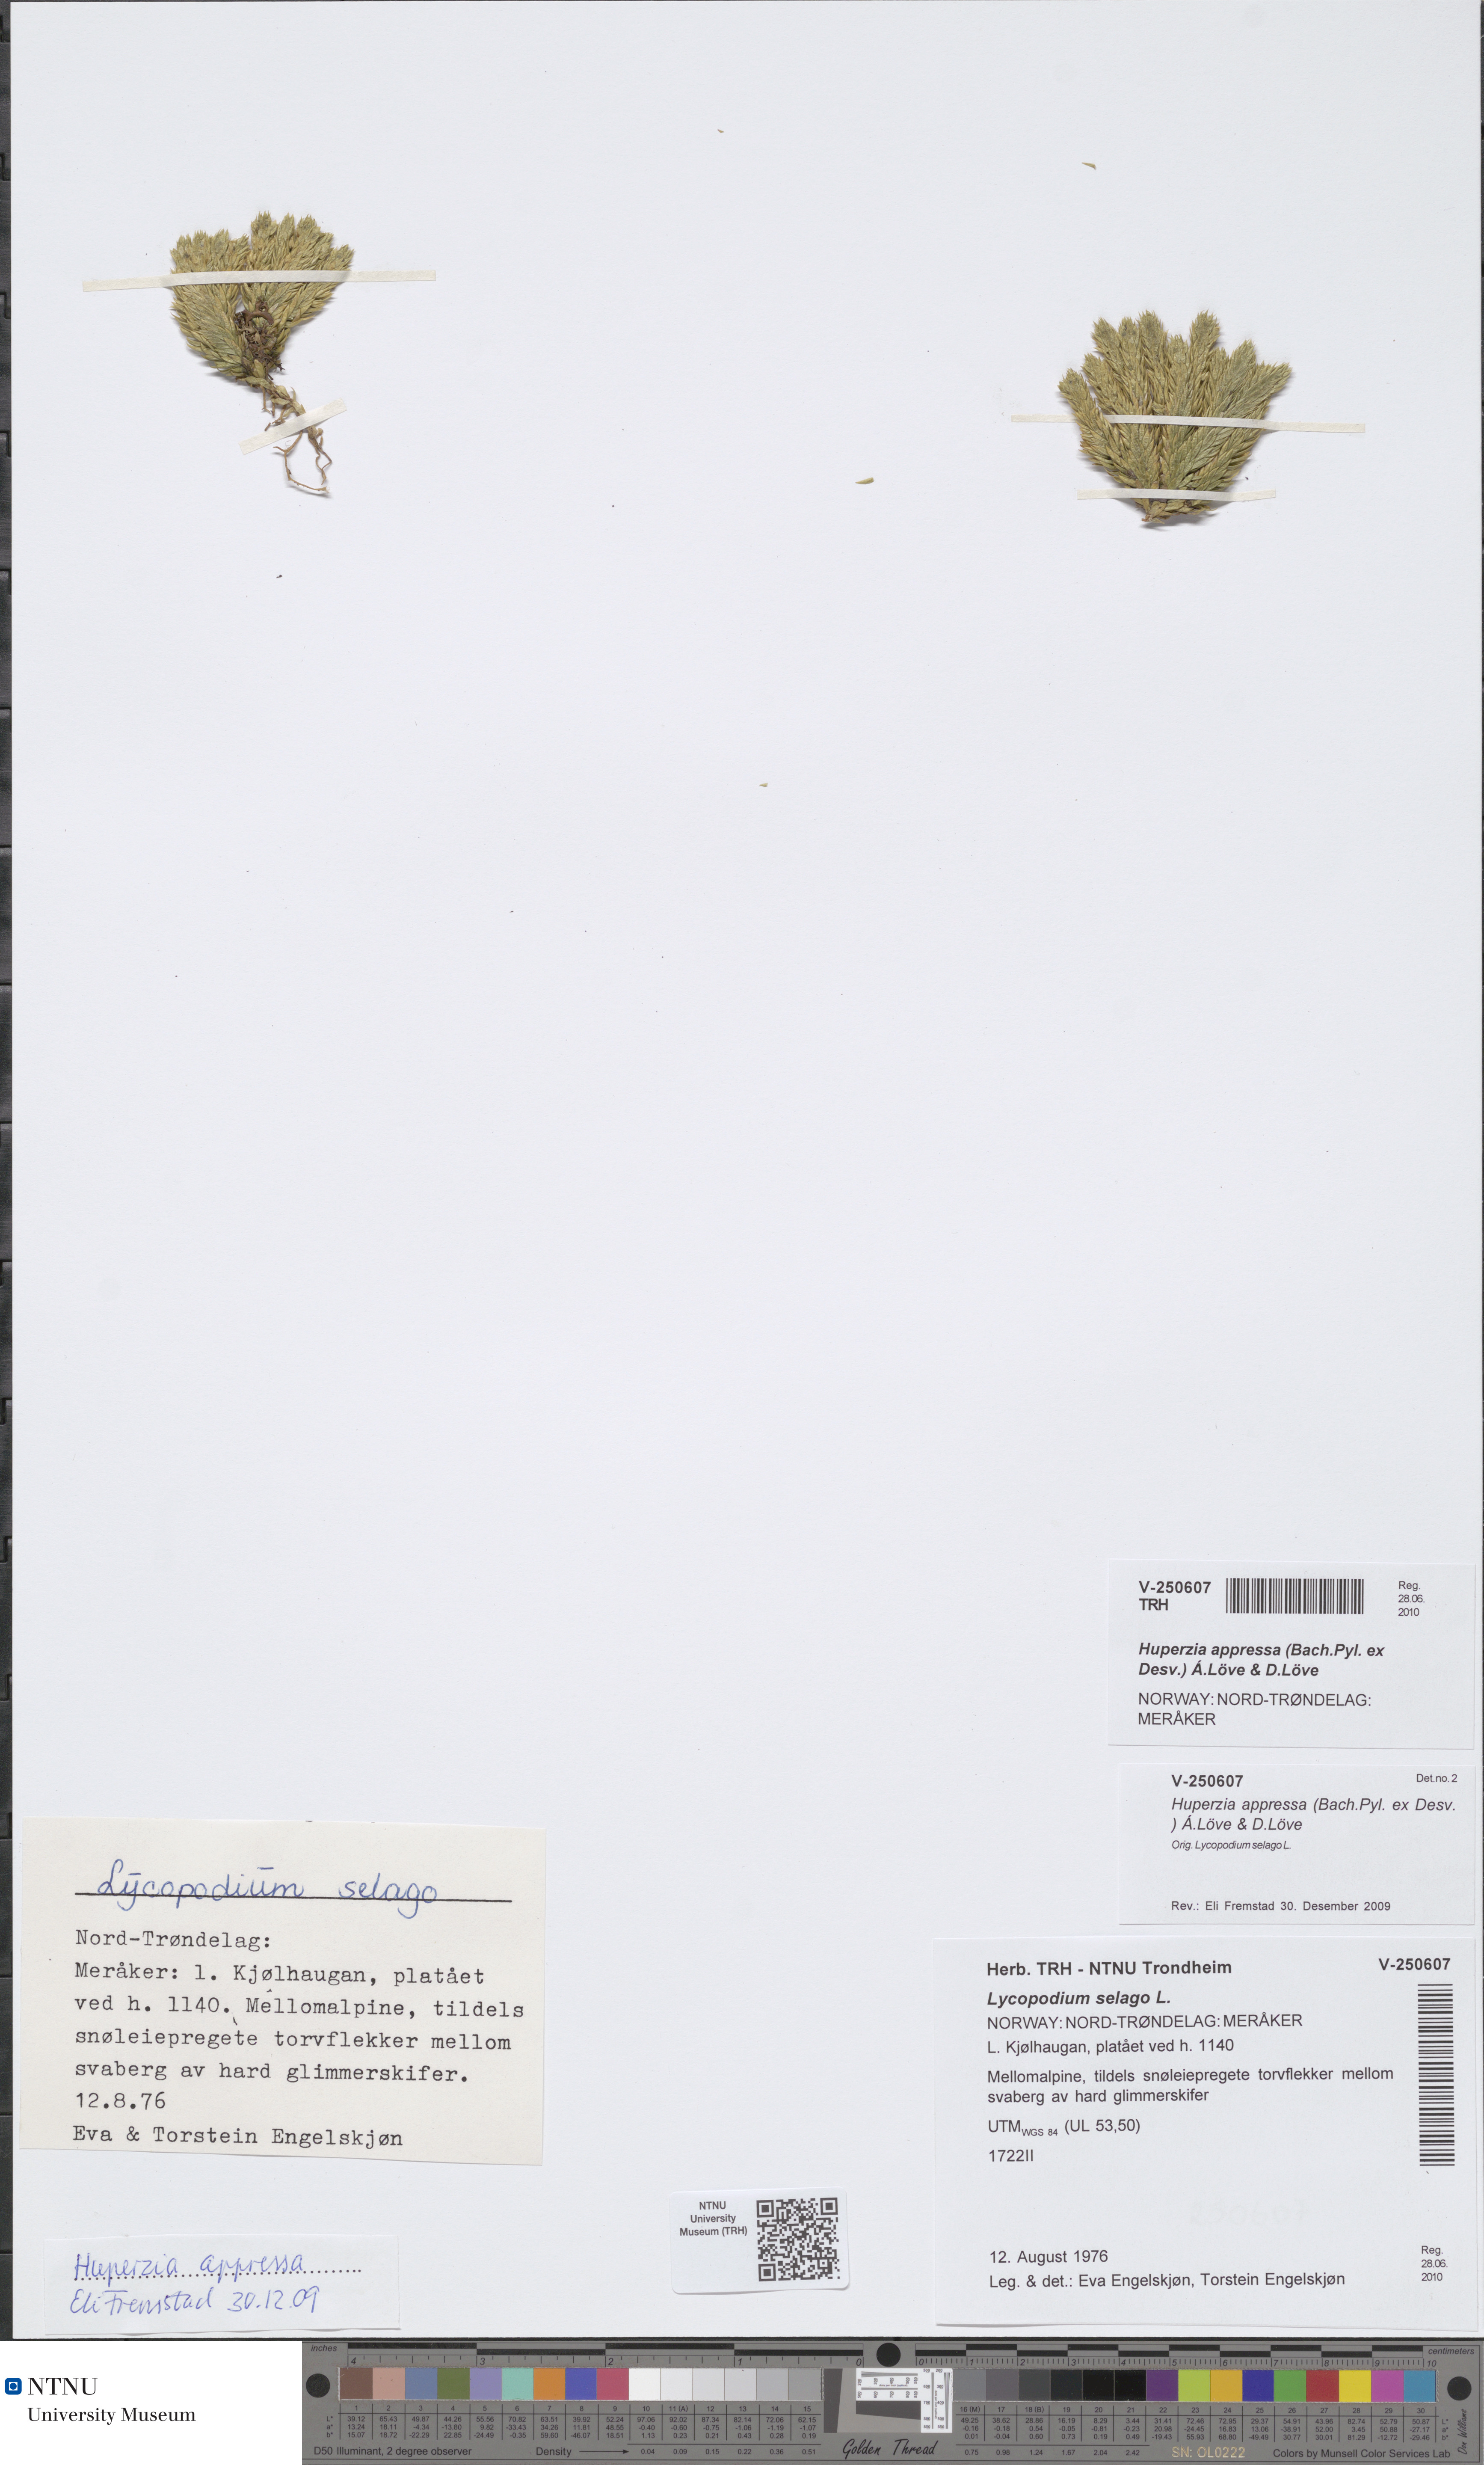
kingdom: Plantae
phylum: Tracheophyta
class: Lycopodiopsida
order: Lycopodiales
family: Lycopodiaceae
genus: Huperzia
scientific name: Huperzia selago
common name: Northern firmoss
